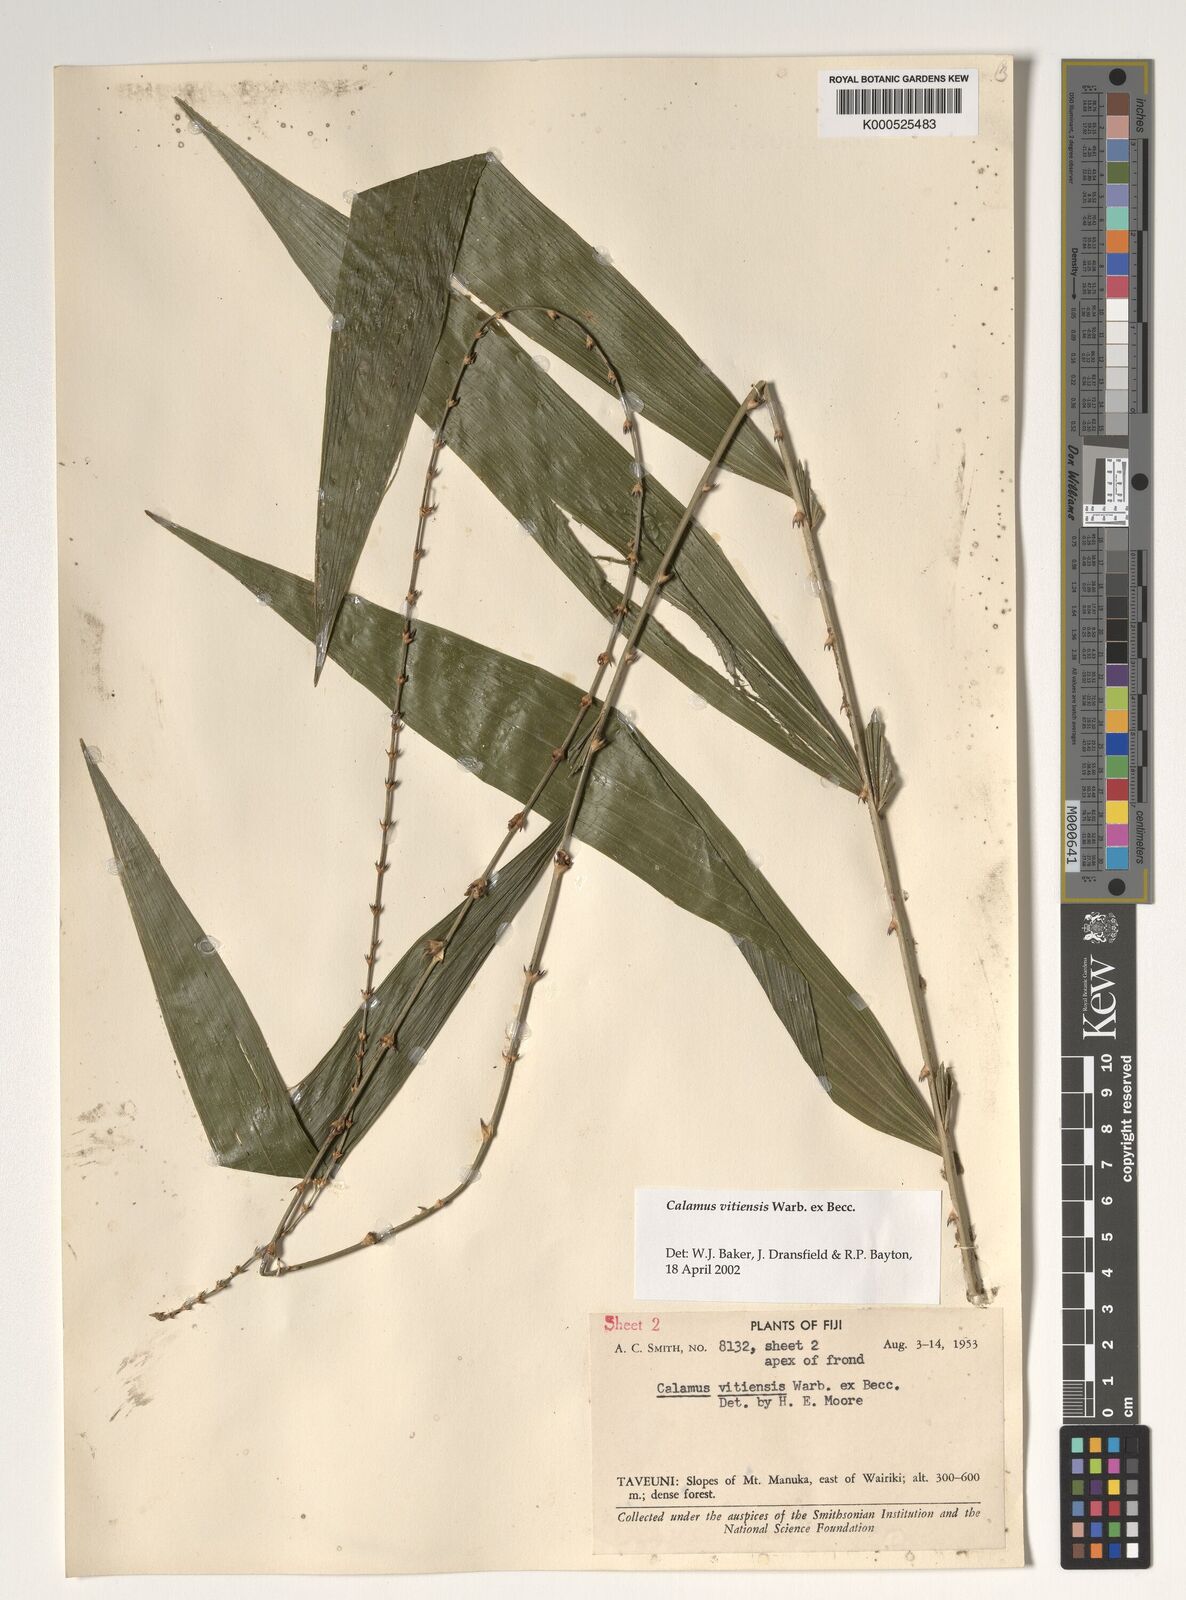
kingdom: Plantae
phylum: Tracheophyta
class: Liliopsida
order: Arecales
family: Arecaceae
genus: Calamus
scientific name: Calamus vitiensis
